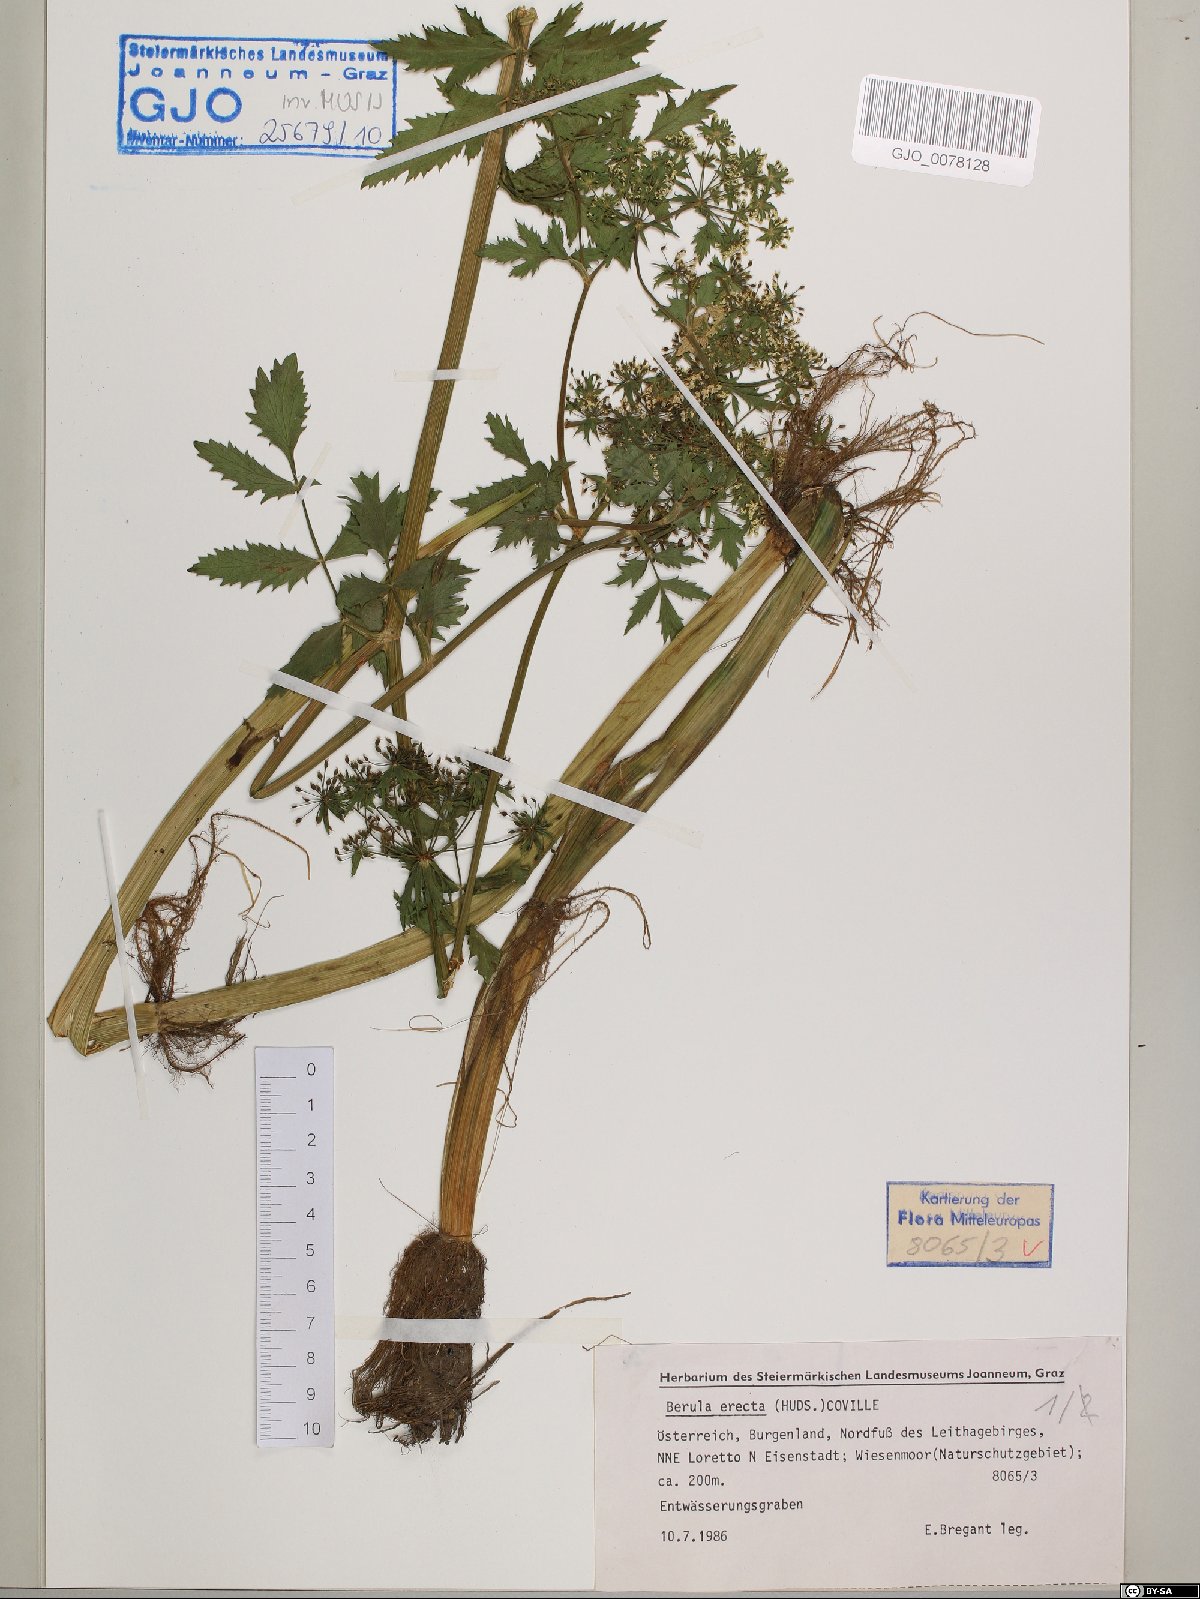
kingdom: Plantae
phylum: Tracheophyta
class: Magnoliopsida
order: Apiales
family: Apiaceae
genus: Berula
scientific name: Berula erecta
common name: Lesser water-parsnip
